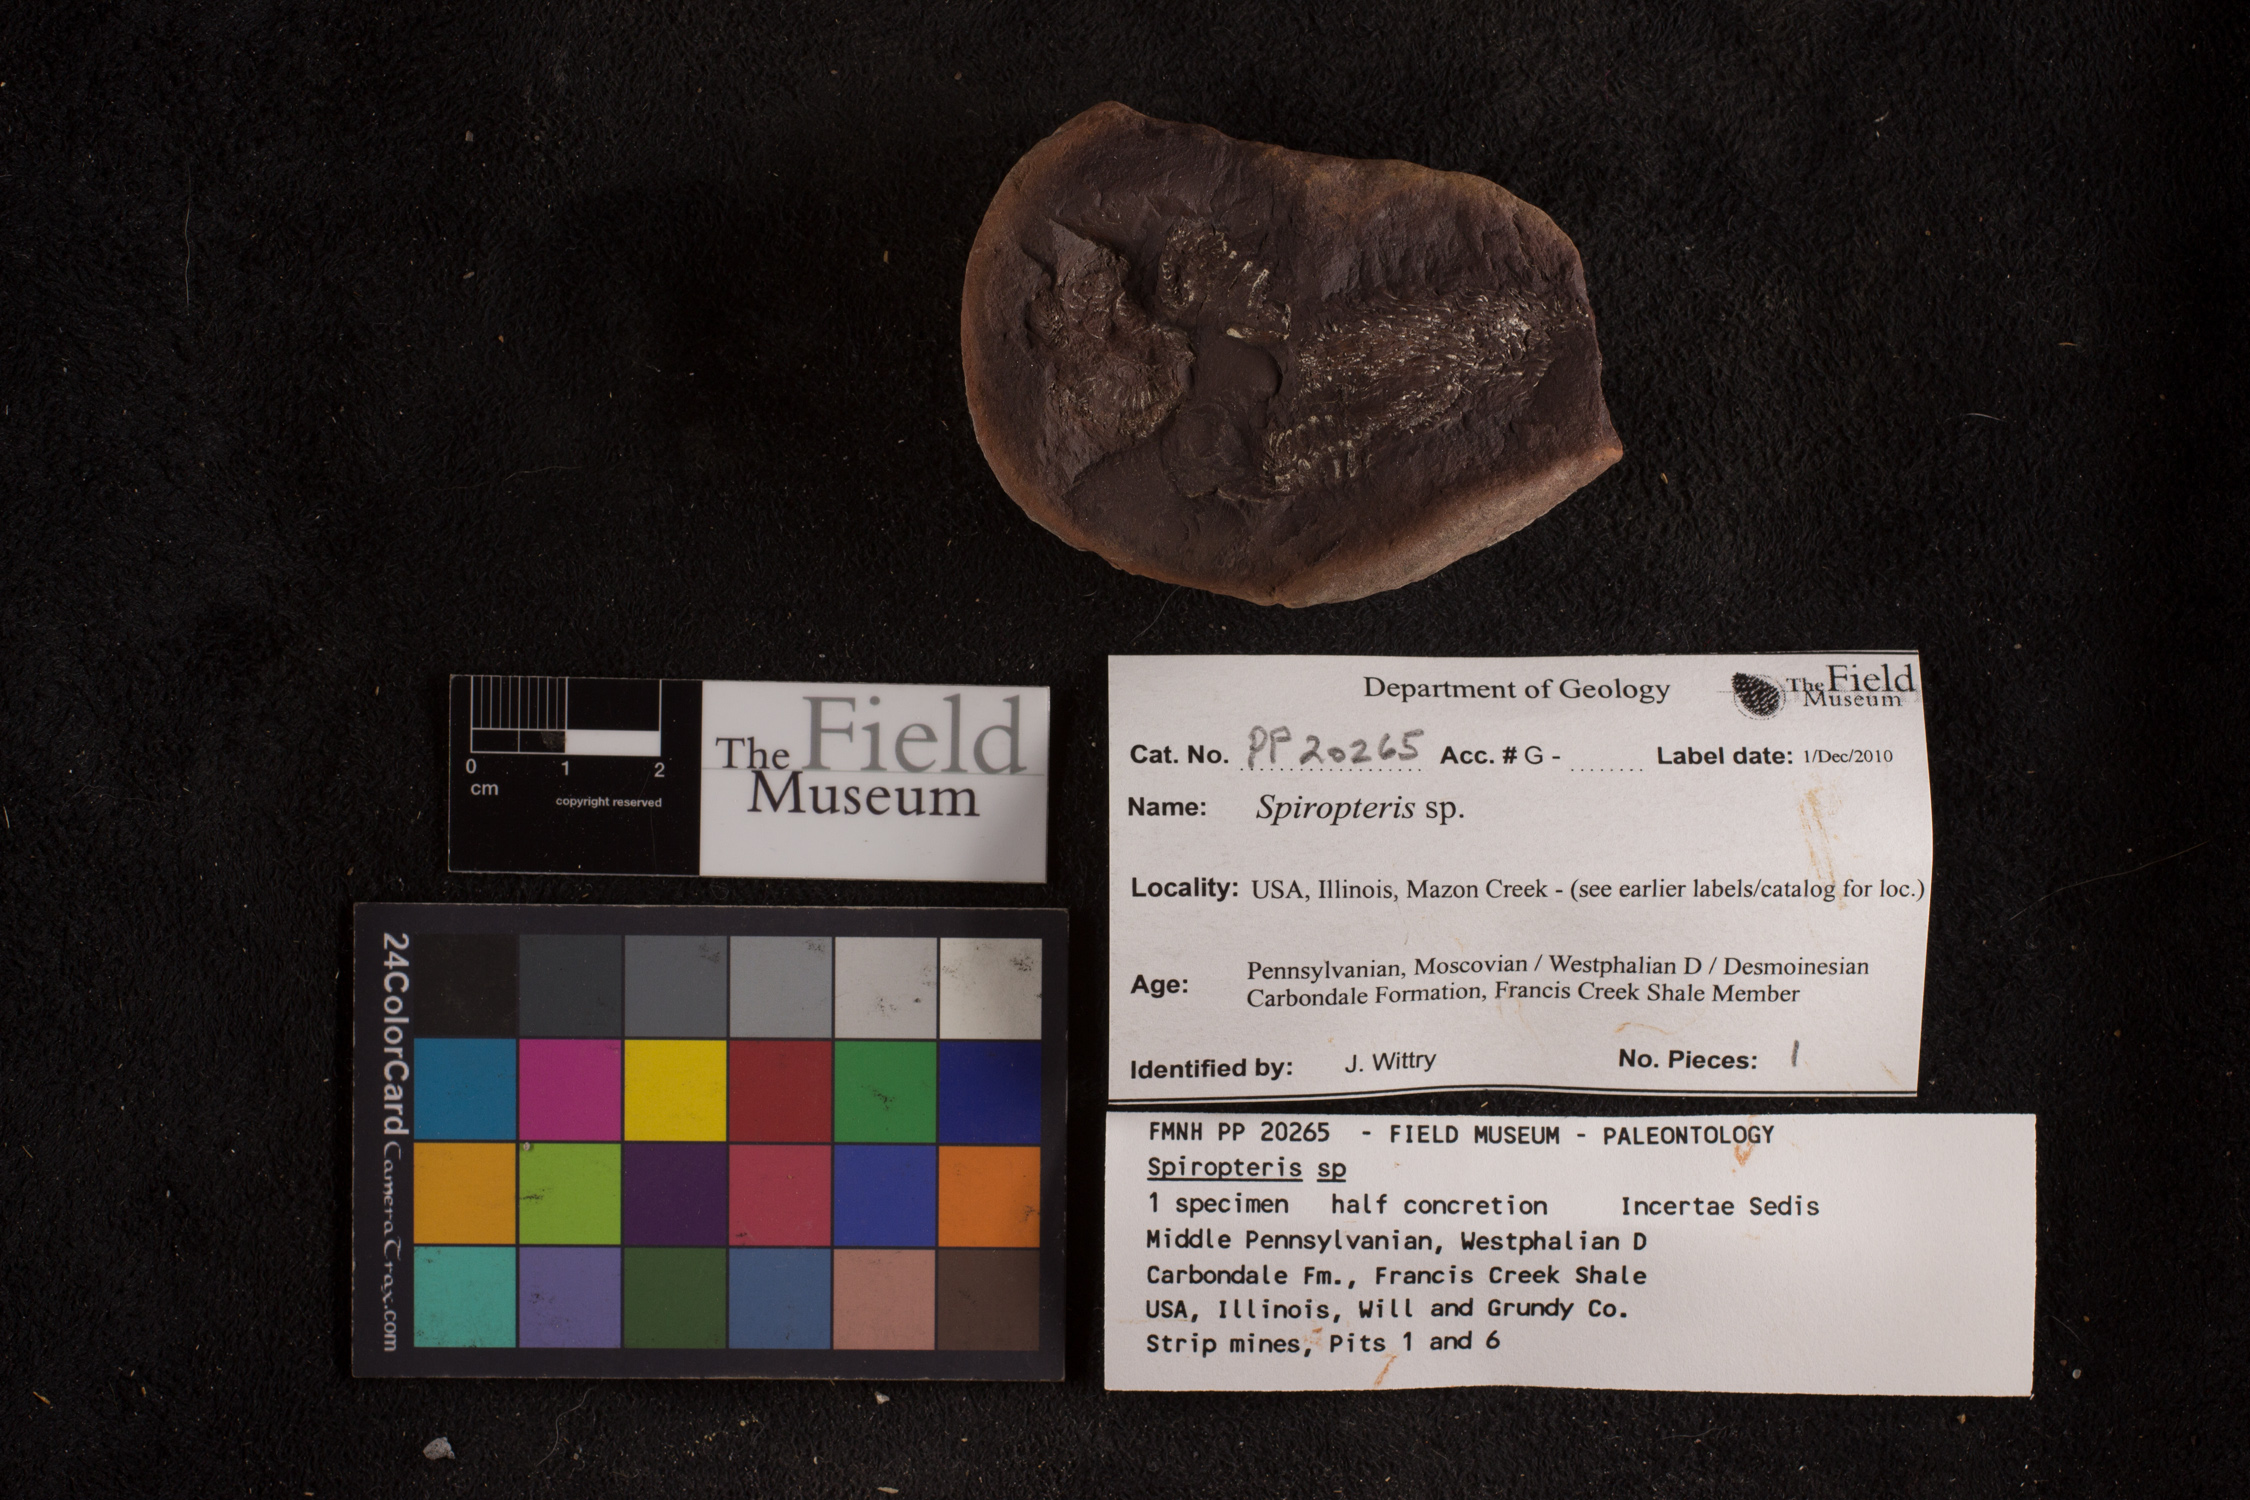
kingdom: Plantae
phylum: Tracheophyta
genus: Spiropteris
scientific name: Spiropteris
